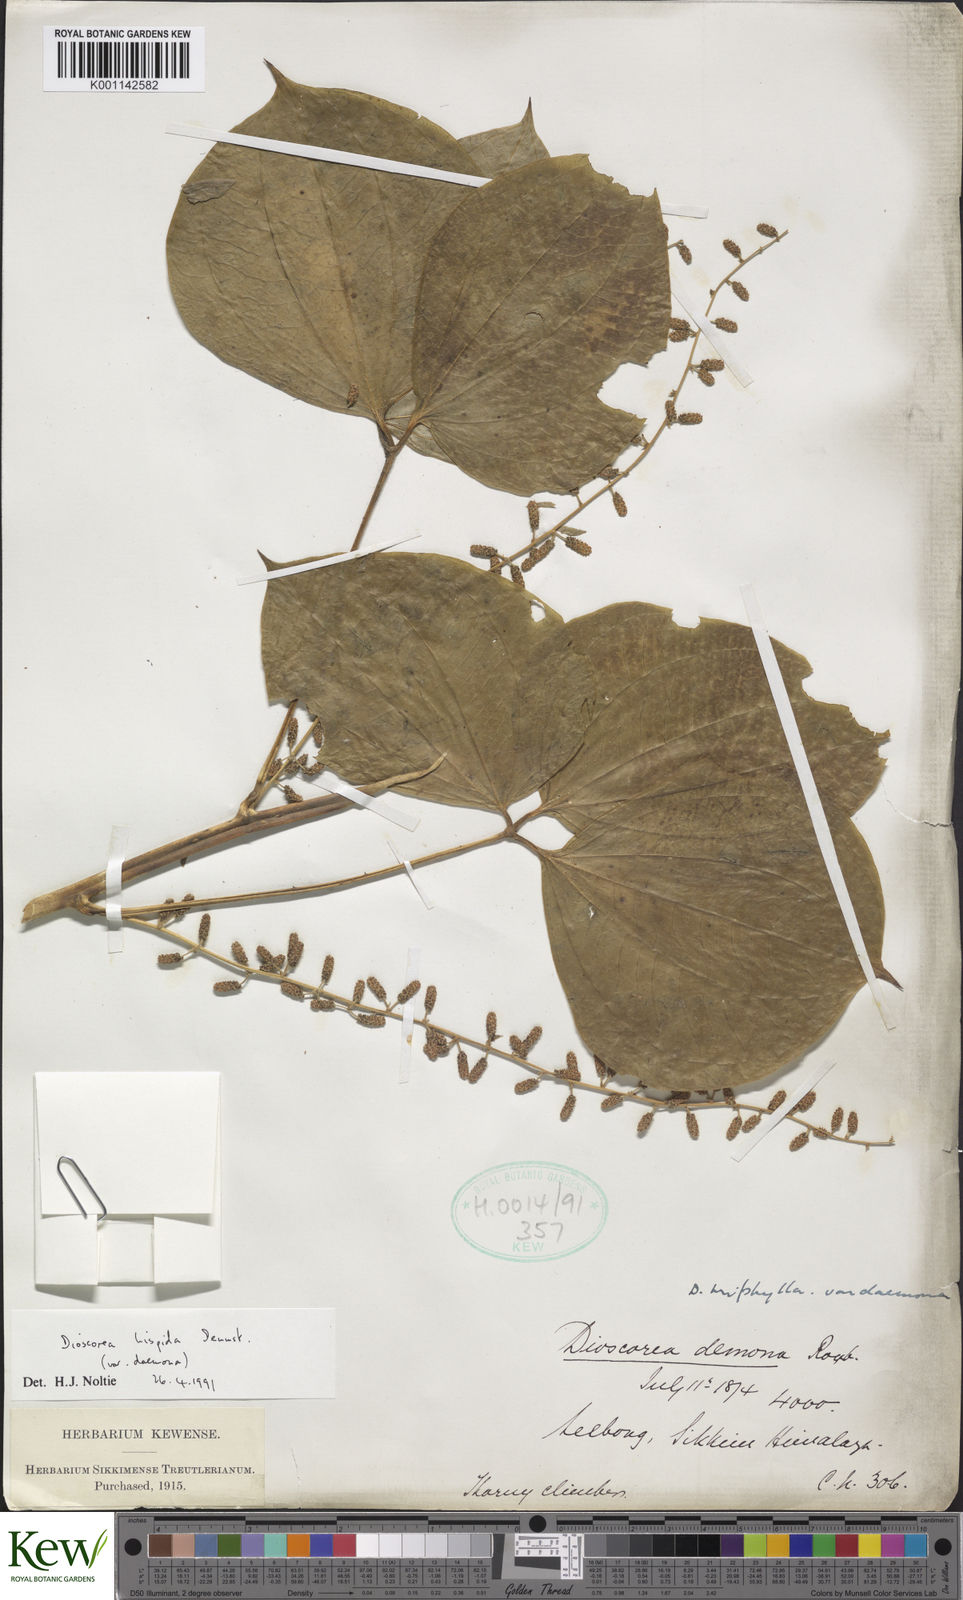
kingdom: Plantae
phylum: Tracheophyta
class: Liliopsida
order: Dioscoreales
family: Dioscoreaceae
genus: Dioscorea
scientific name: Dioscorea pentaphylla
